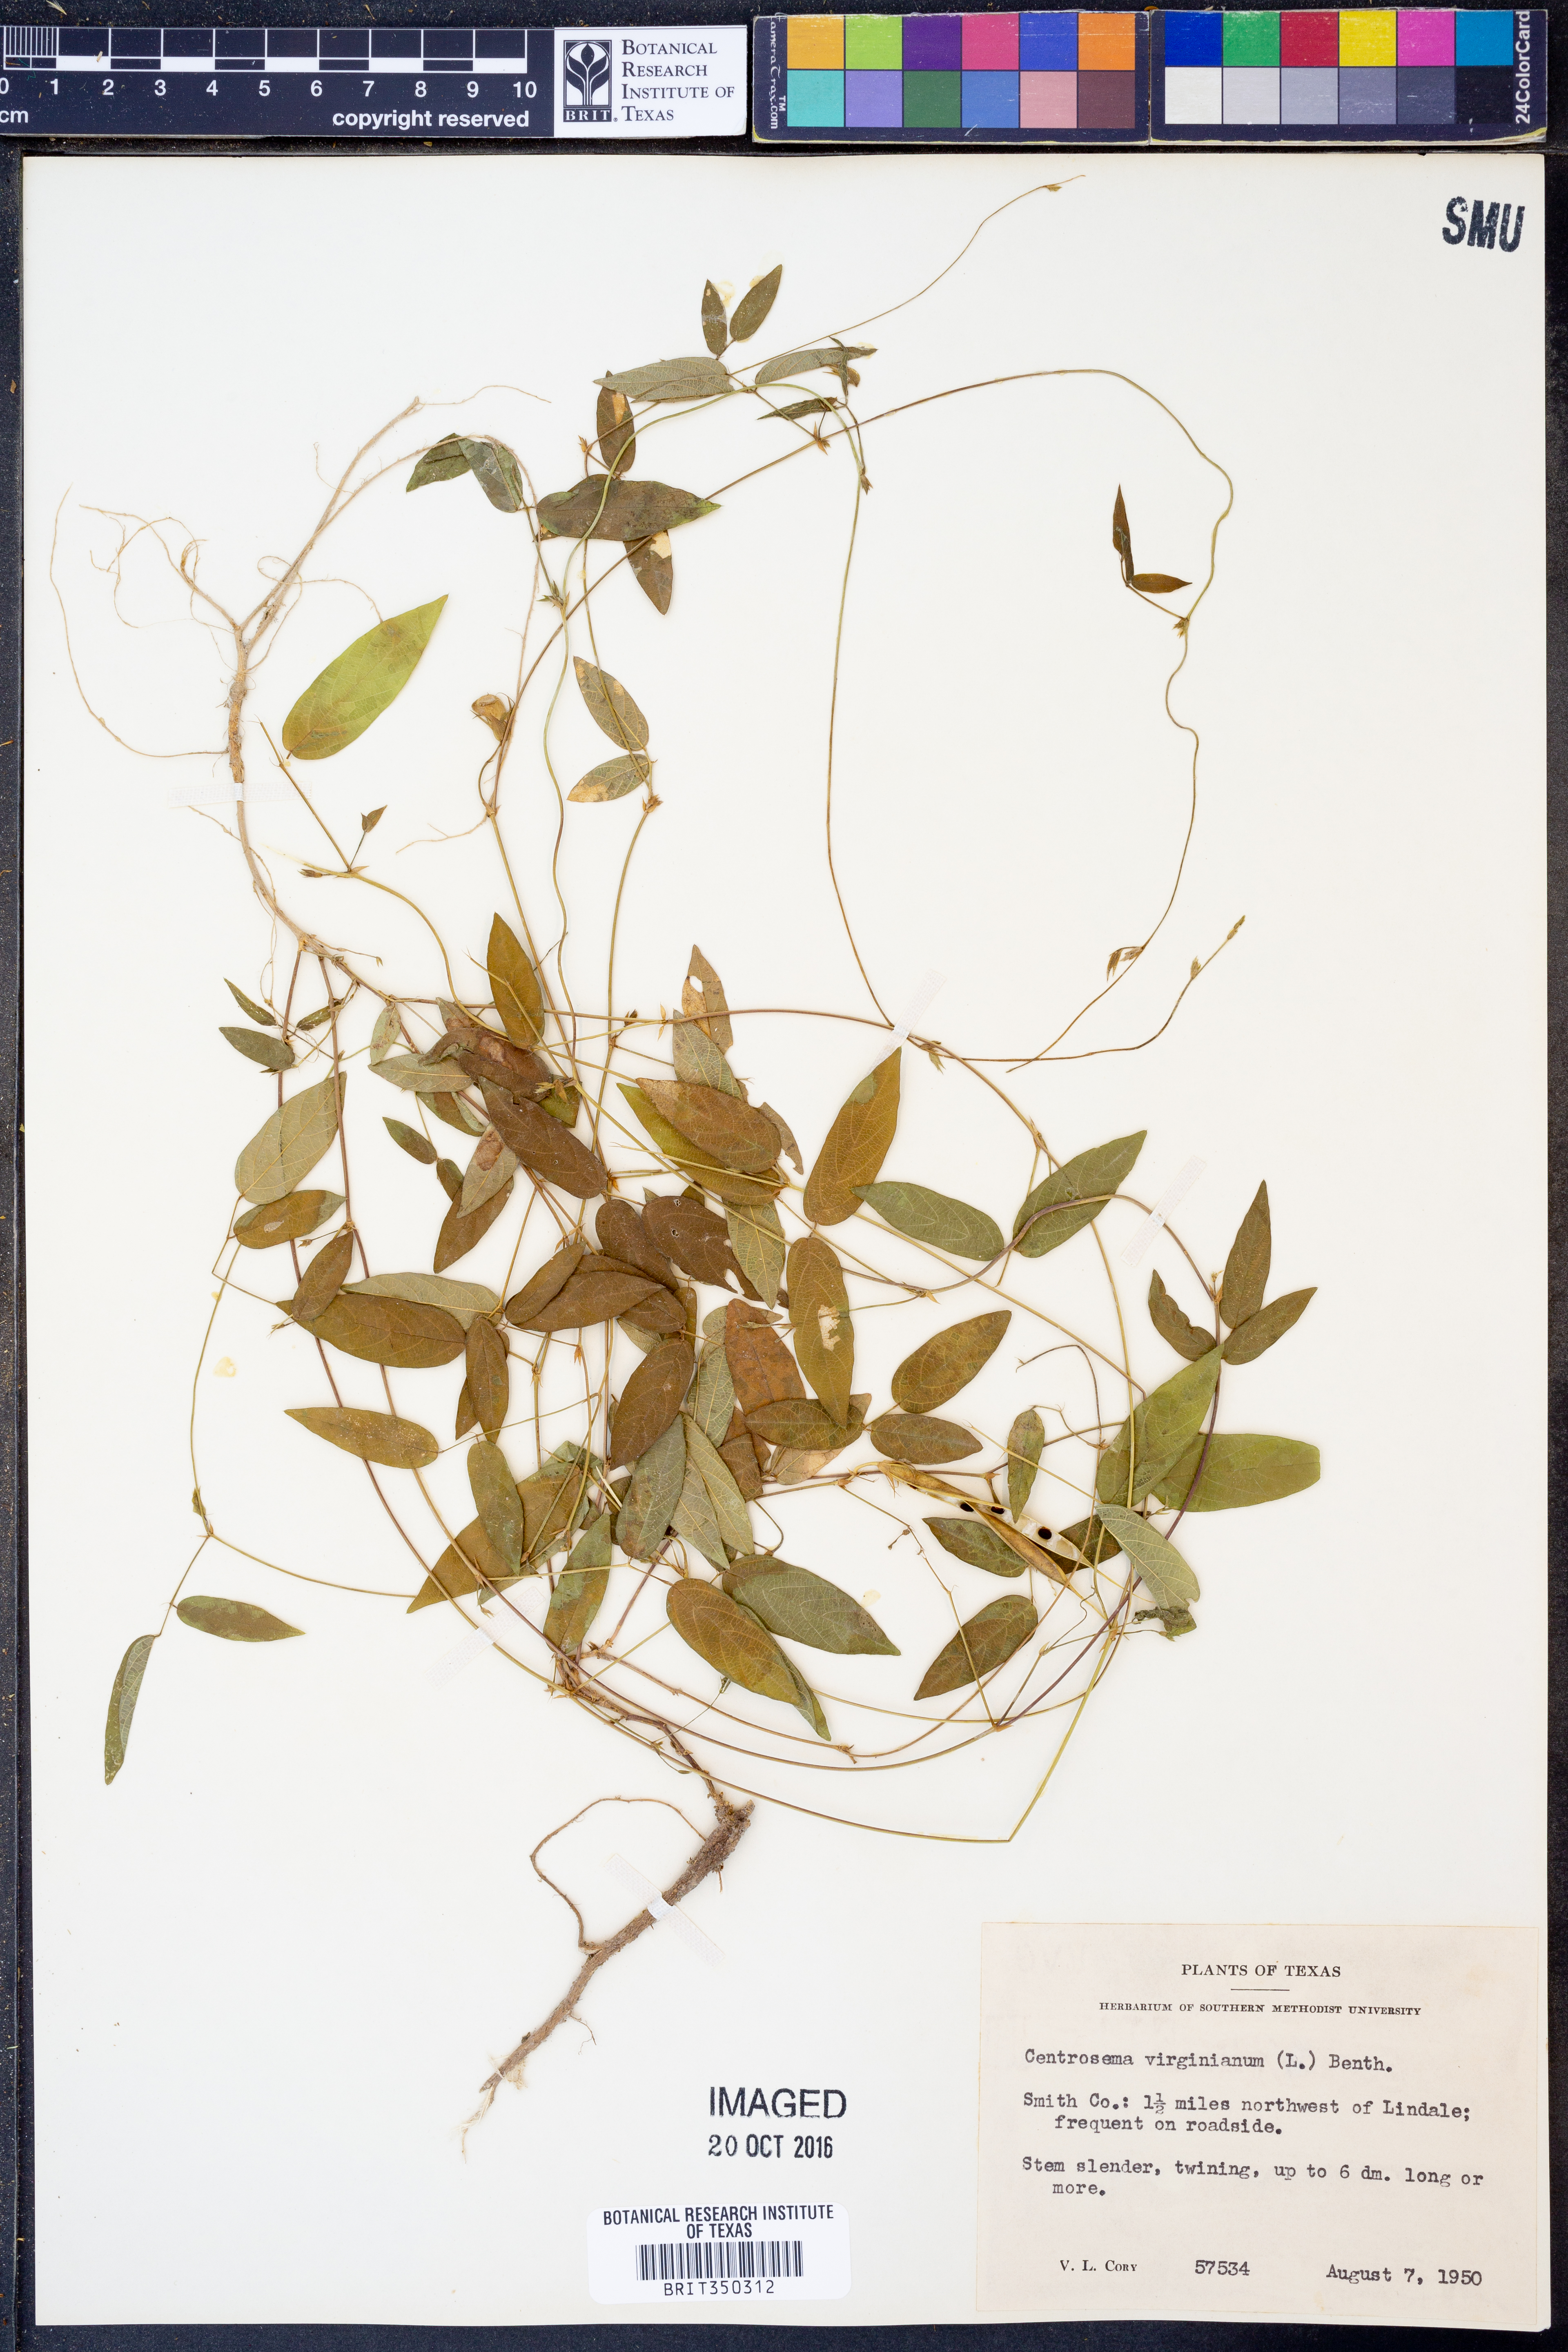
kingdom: Plantae
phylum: Tracheophyta
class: Magnoliopsida
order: Fabales
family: Fabaceae
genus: Centrosema
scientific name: Centrosema virginianum
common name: Butterfly-pea
